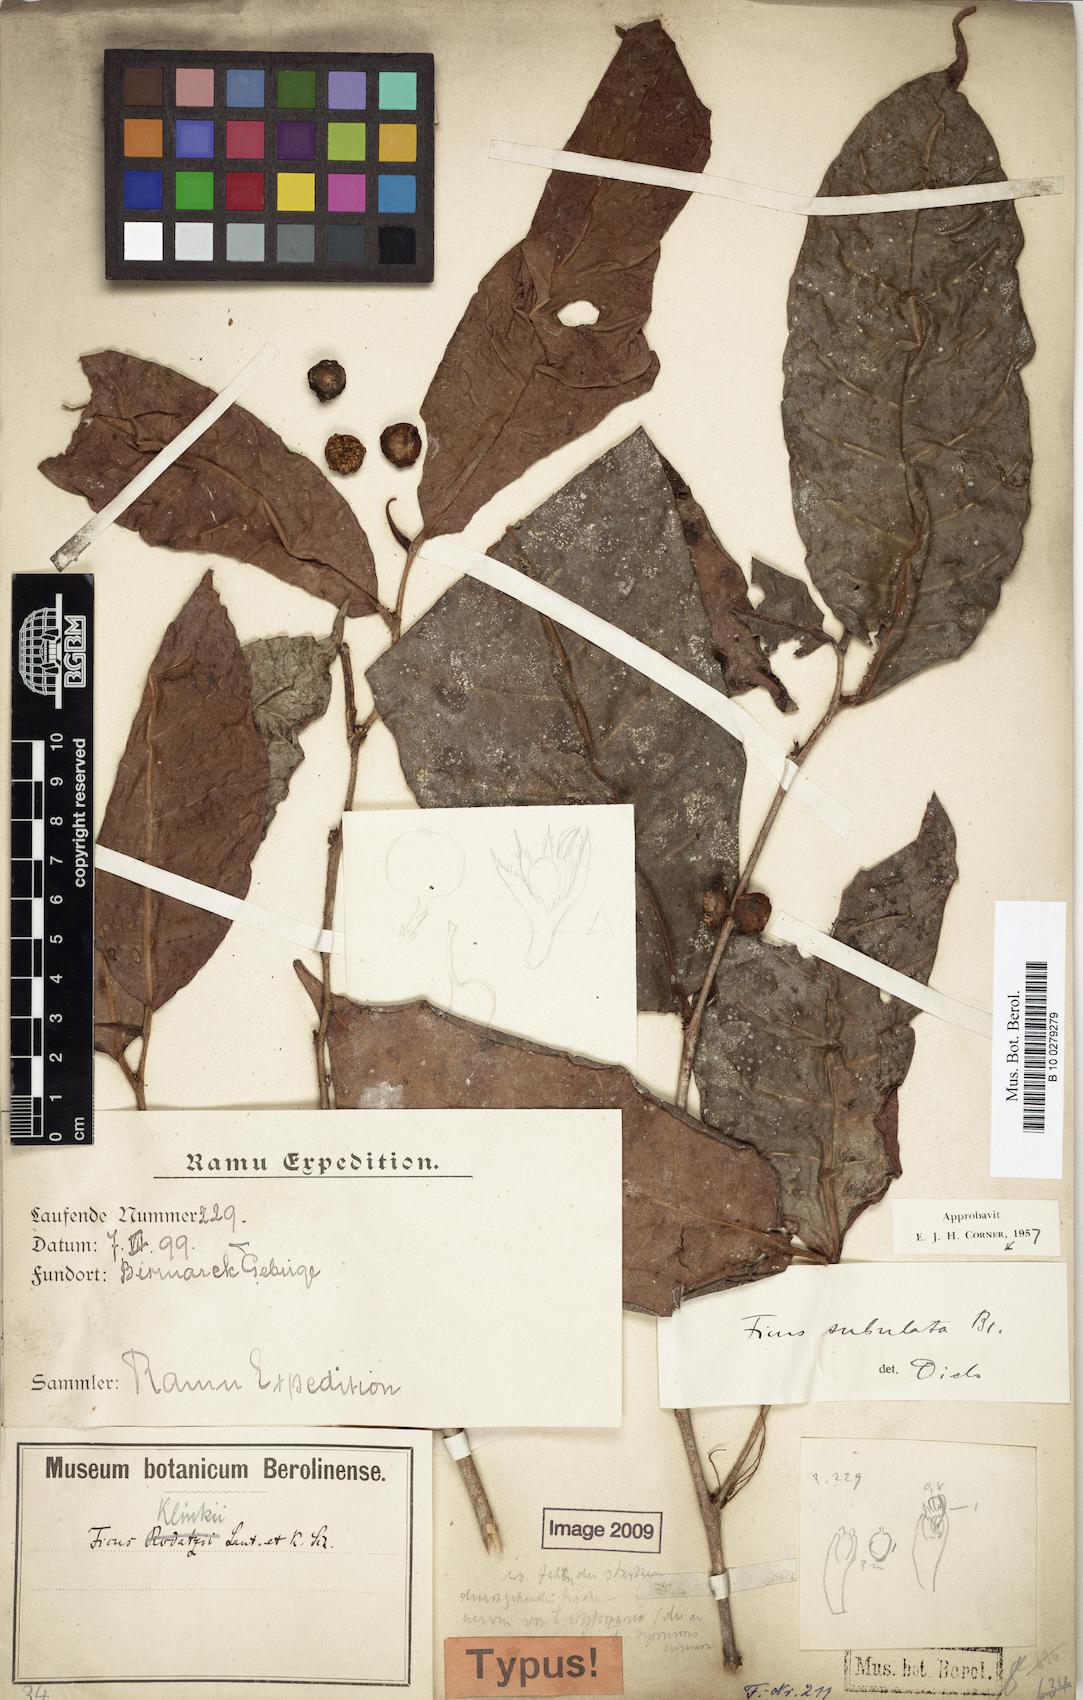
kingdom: Plantae
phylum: Tracheophyta
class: Magnoliopsida
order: Rosales
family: Moraceae
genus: Ficus
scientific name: Ficus subulata
